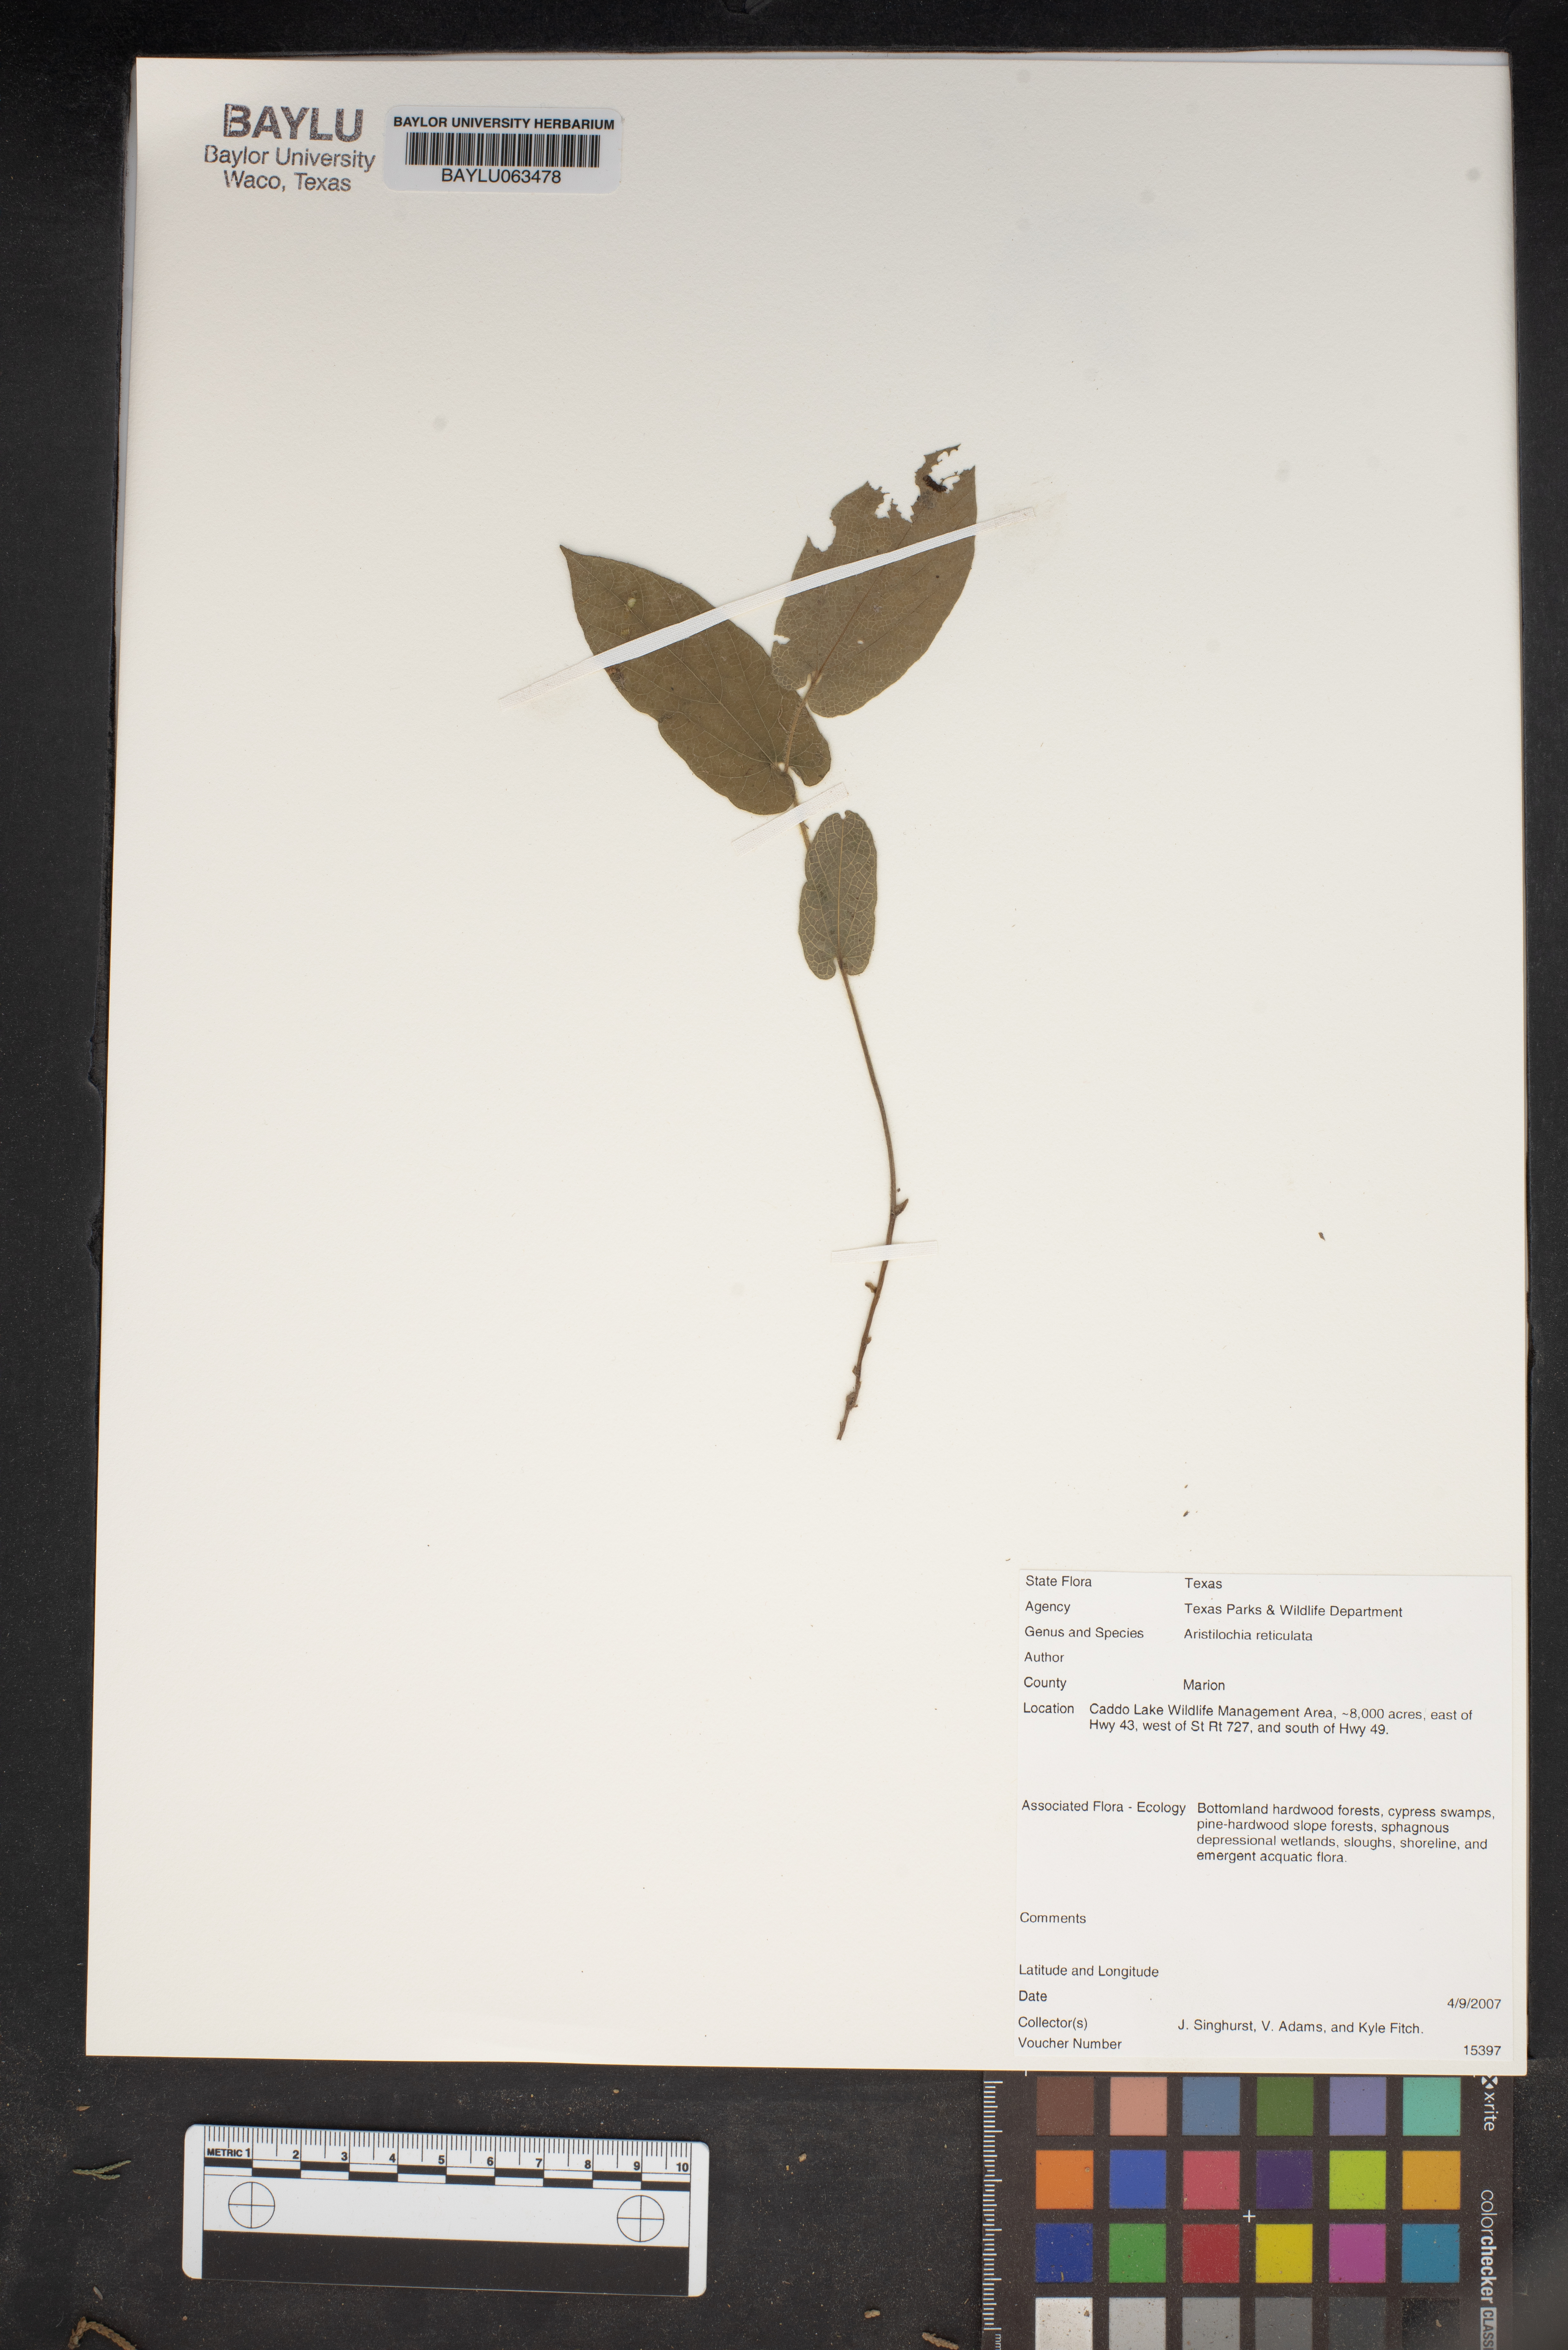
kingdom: Plantae
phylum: Tracheophyta
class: Magnoliopsida
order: Piperales
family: Aristolochiaceae
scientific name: Aristolochiaceae
